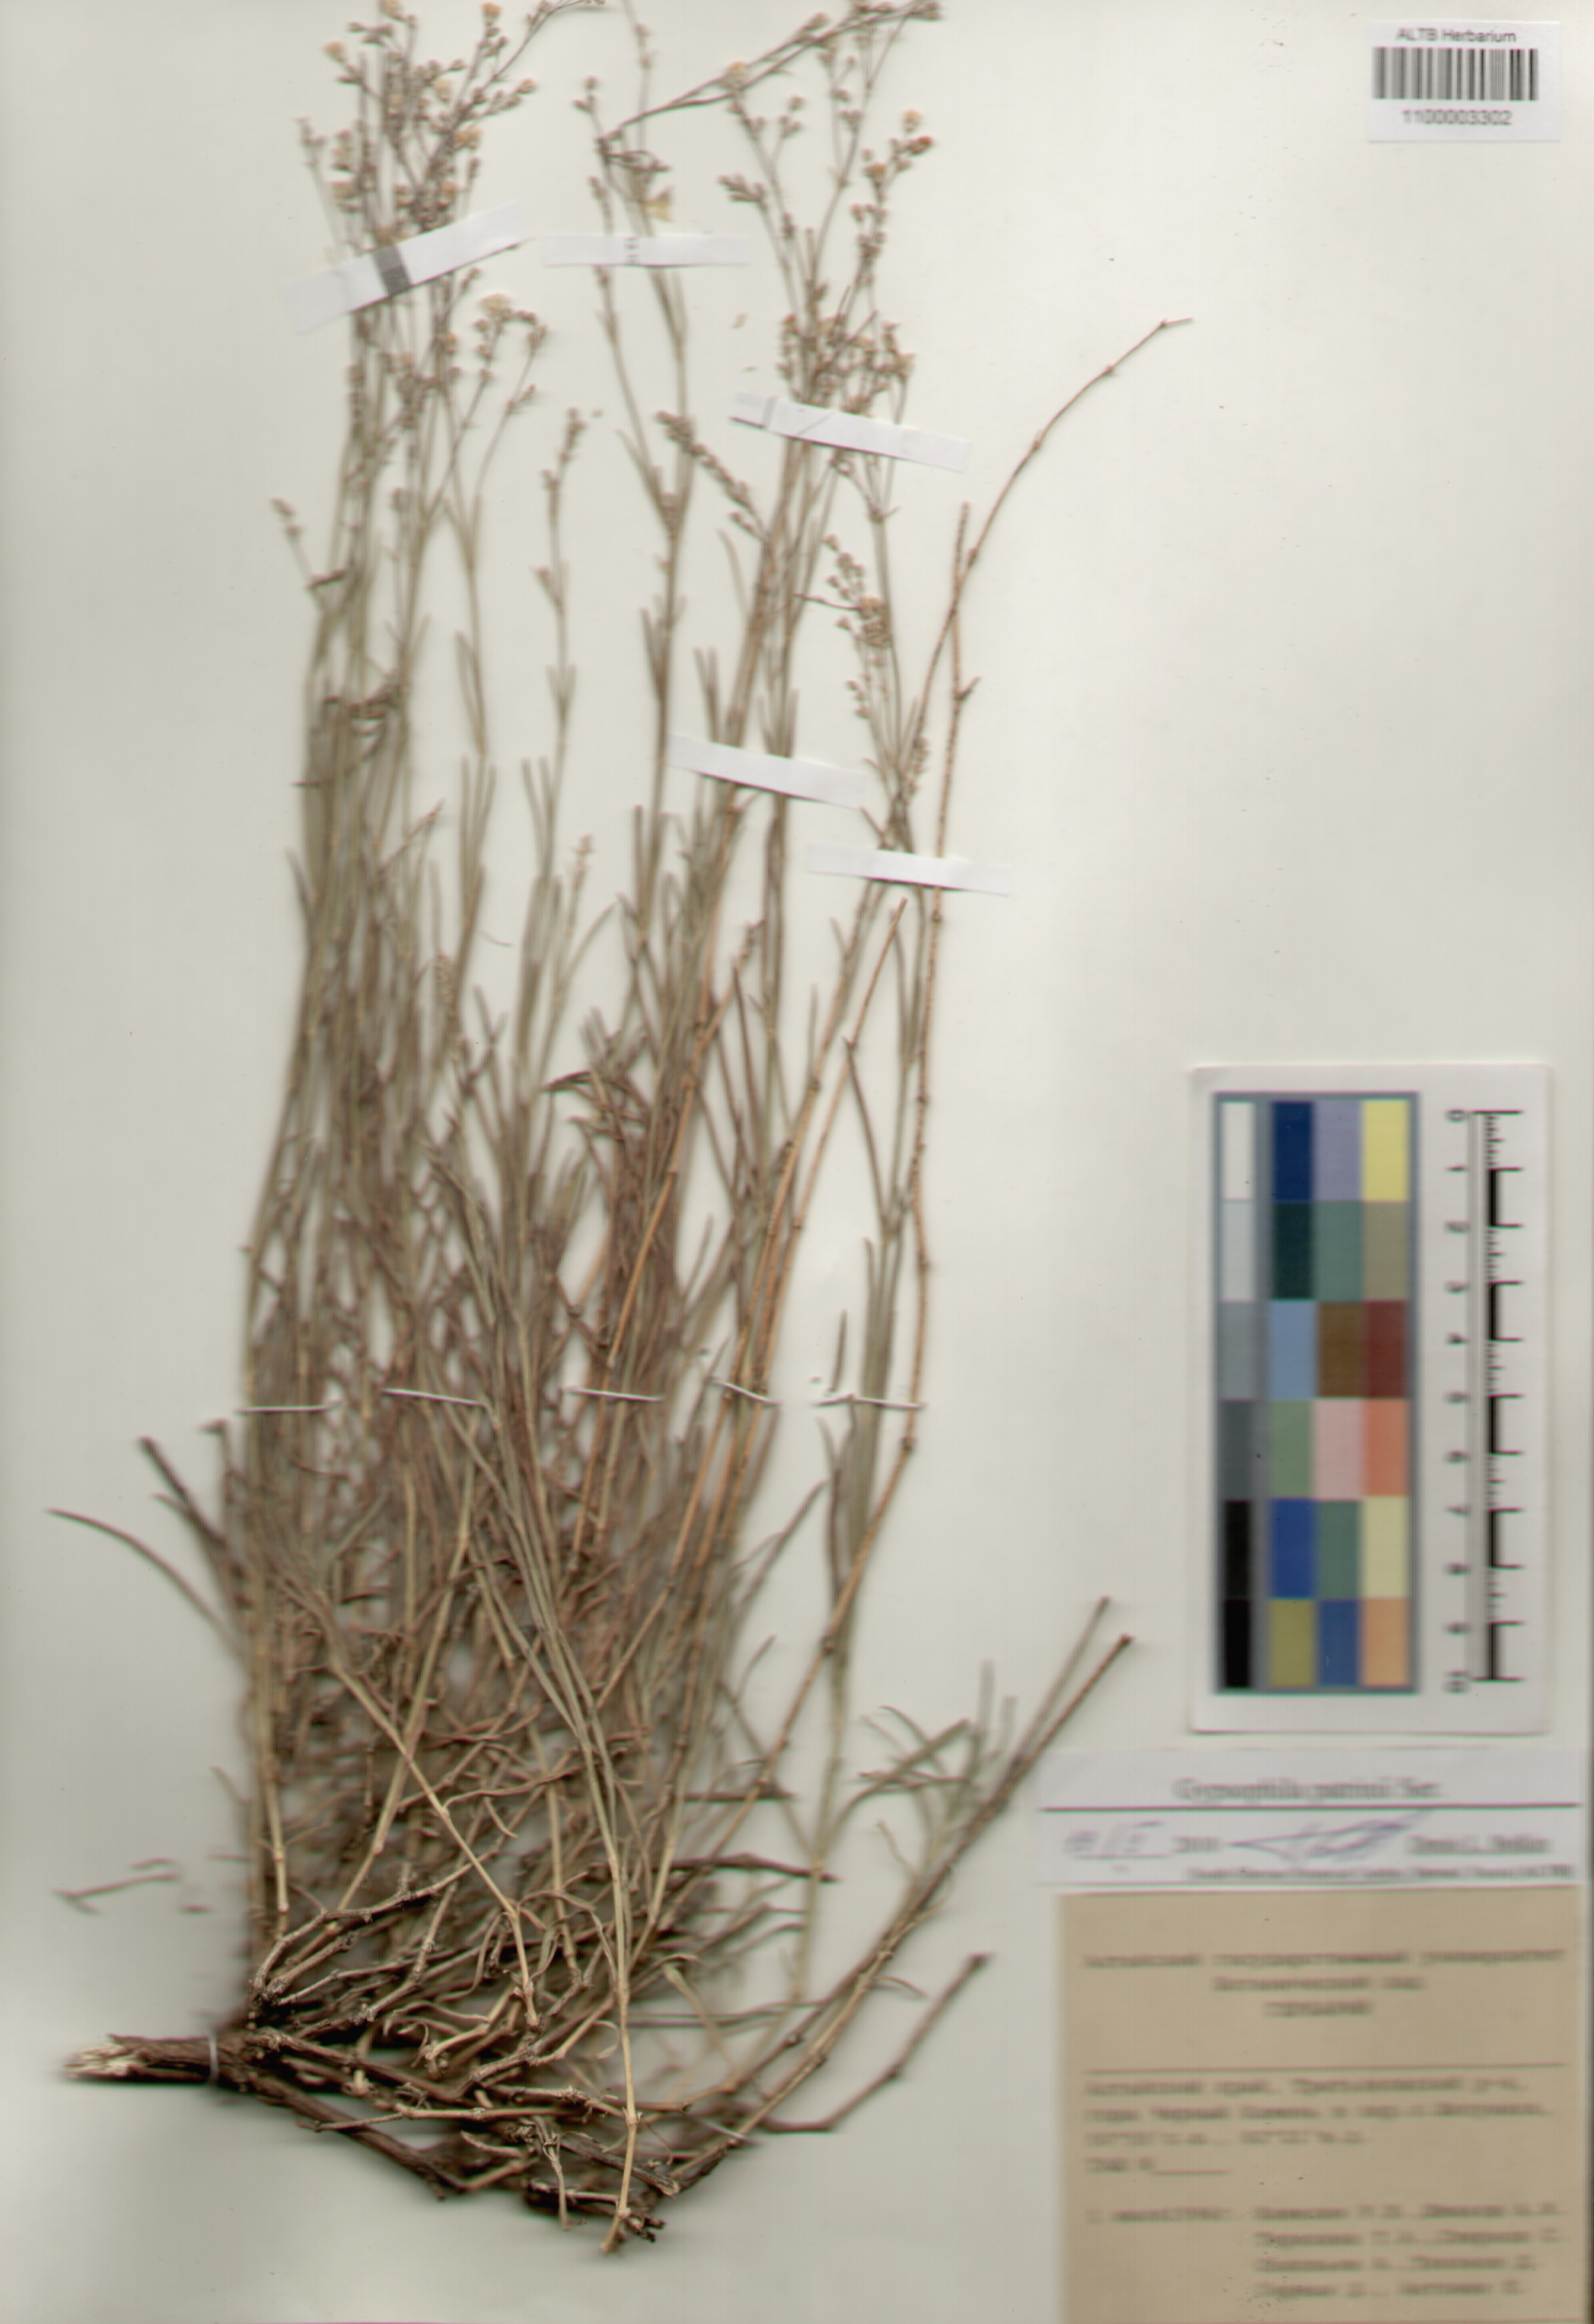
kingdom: Plantae
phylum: Tracheophyta
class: Magnoliopsida
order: Caryophyllales
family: Caryophyllaceae
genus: Gypsophila
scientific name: Gypsophila patrinii
